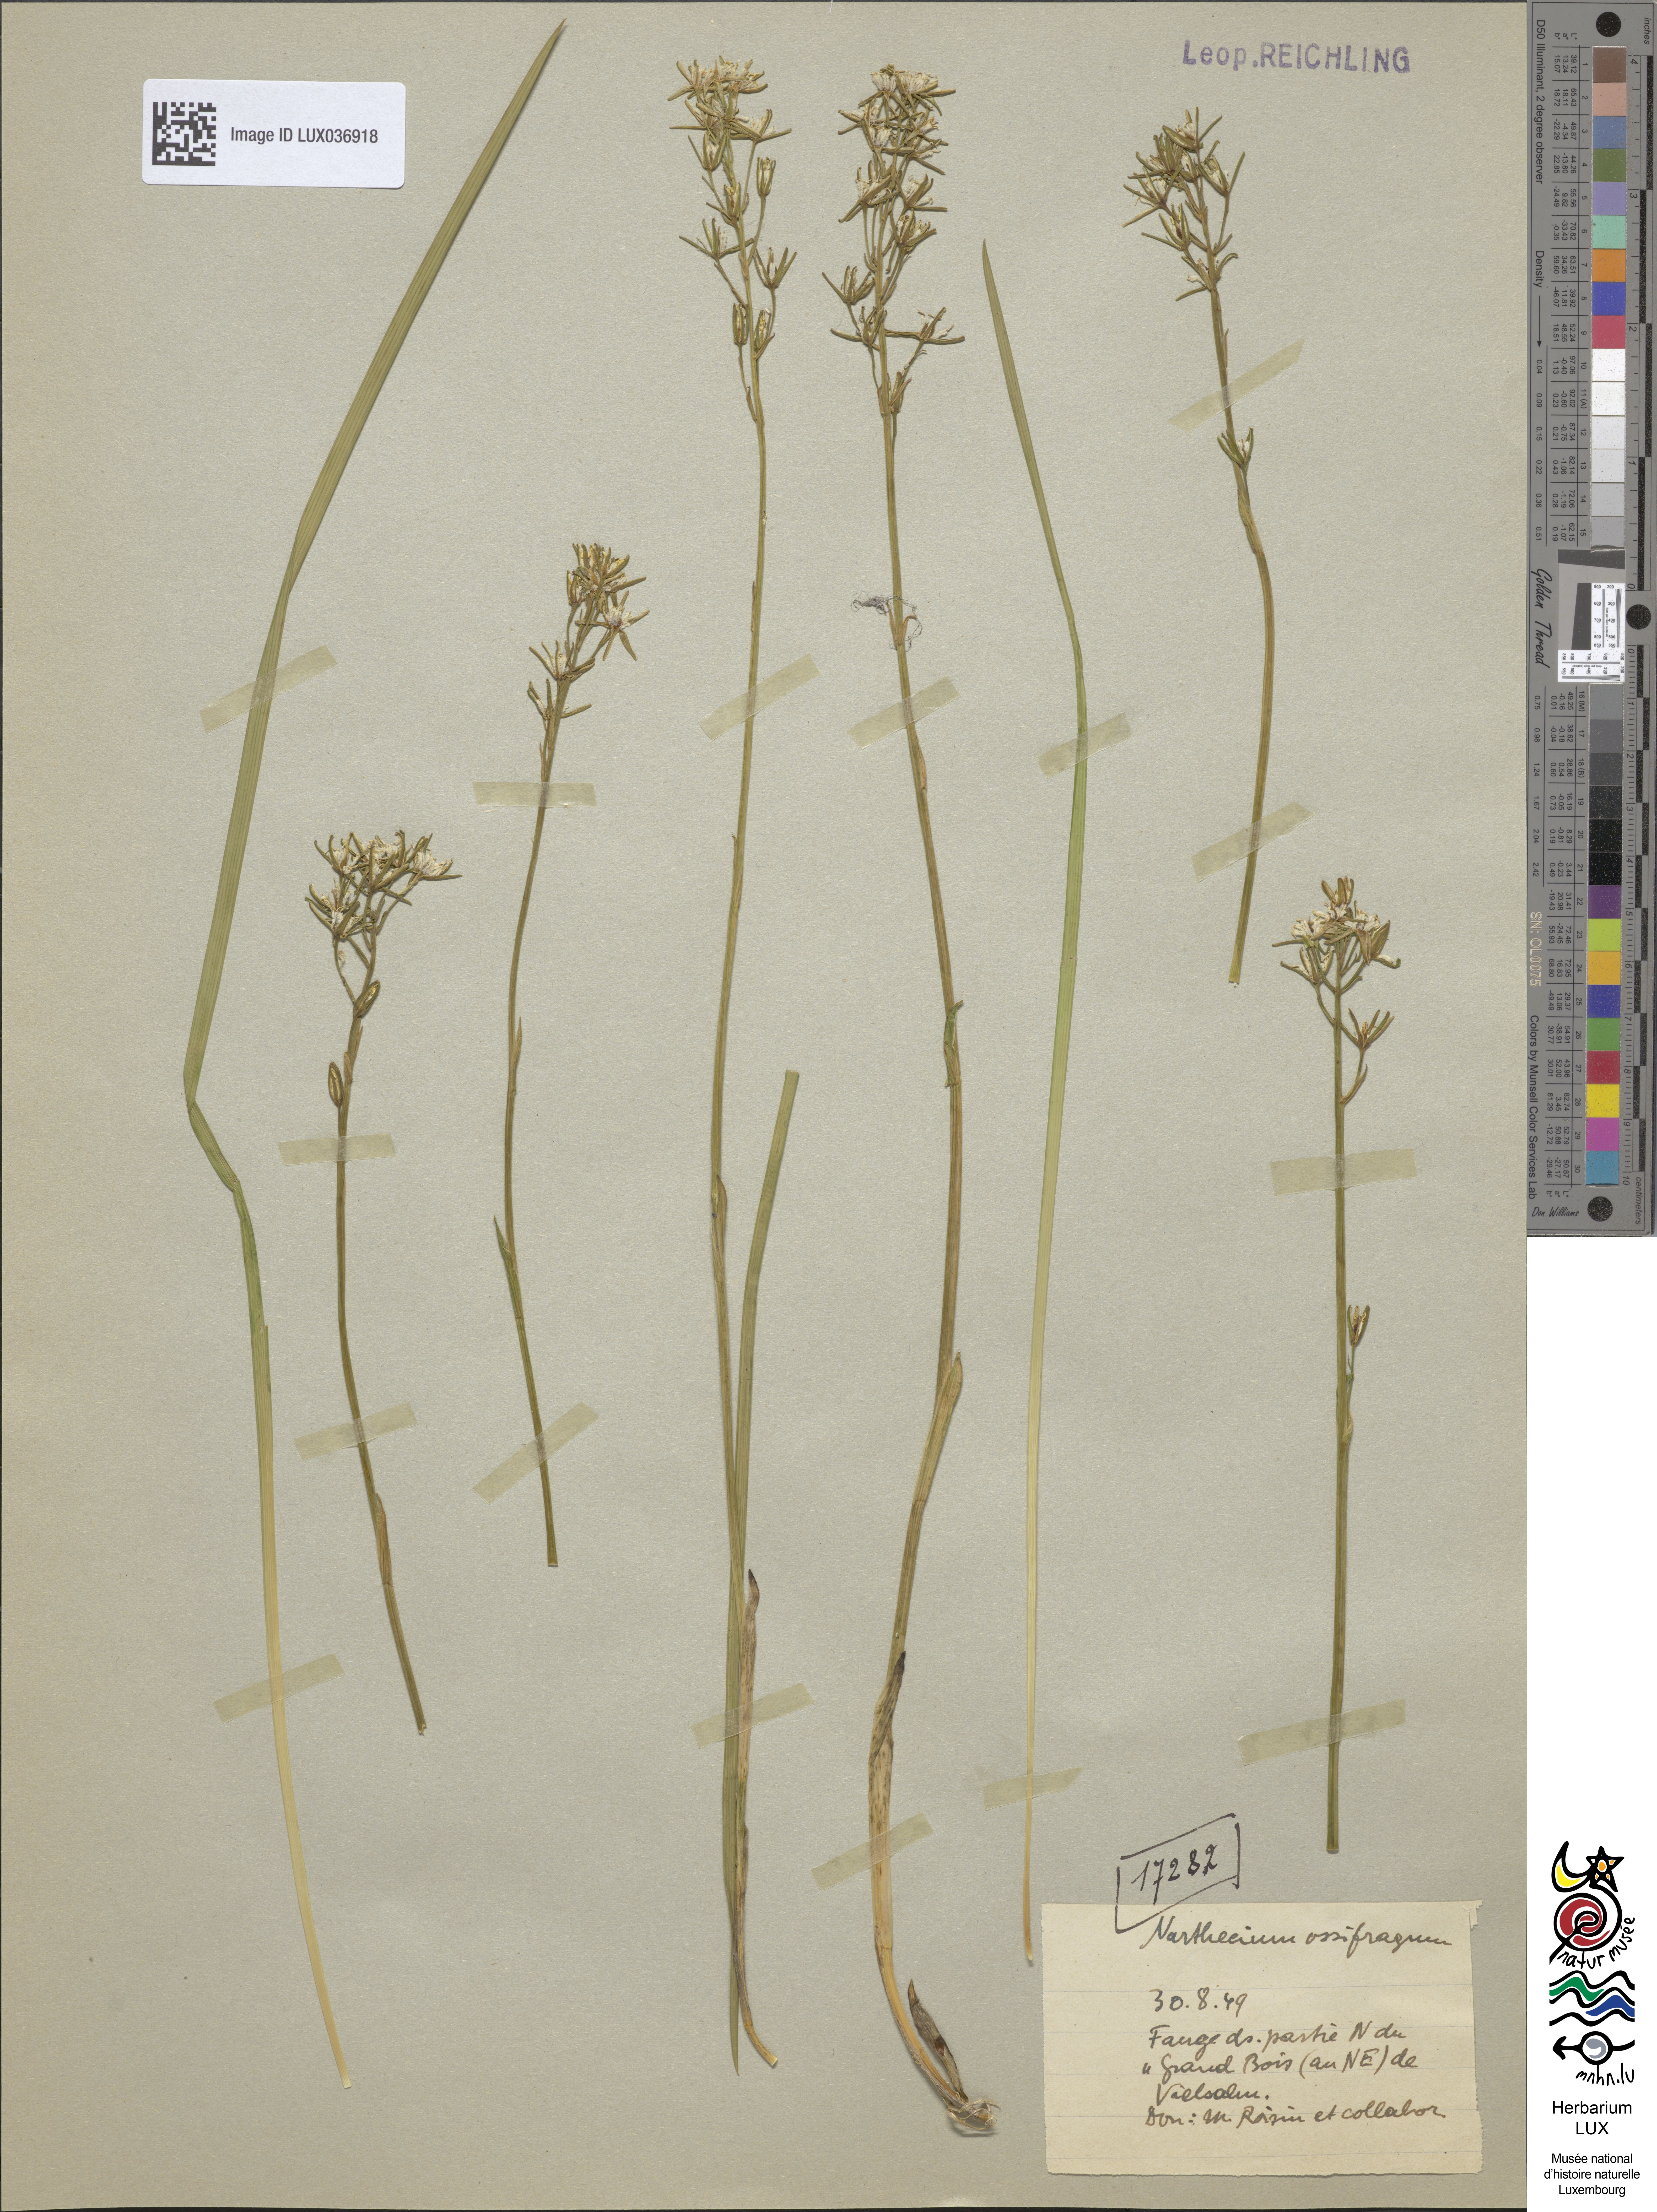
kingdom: Plantae
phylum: Tracheophyta
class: Liliopsida
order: Dioscoreales
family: Nartheciaceae
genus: Narthecium
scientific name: Narthecium ossifragum
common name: Bog asphodel
